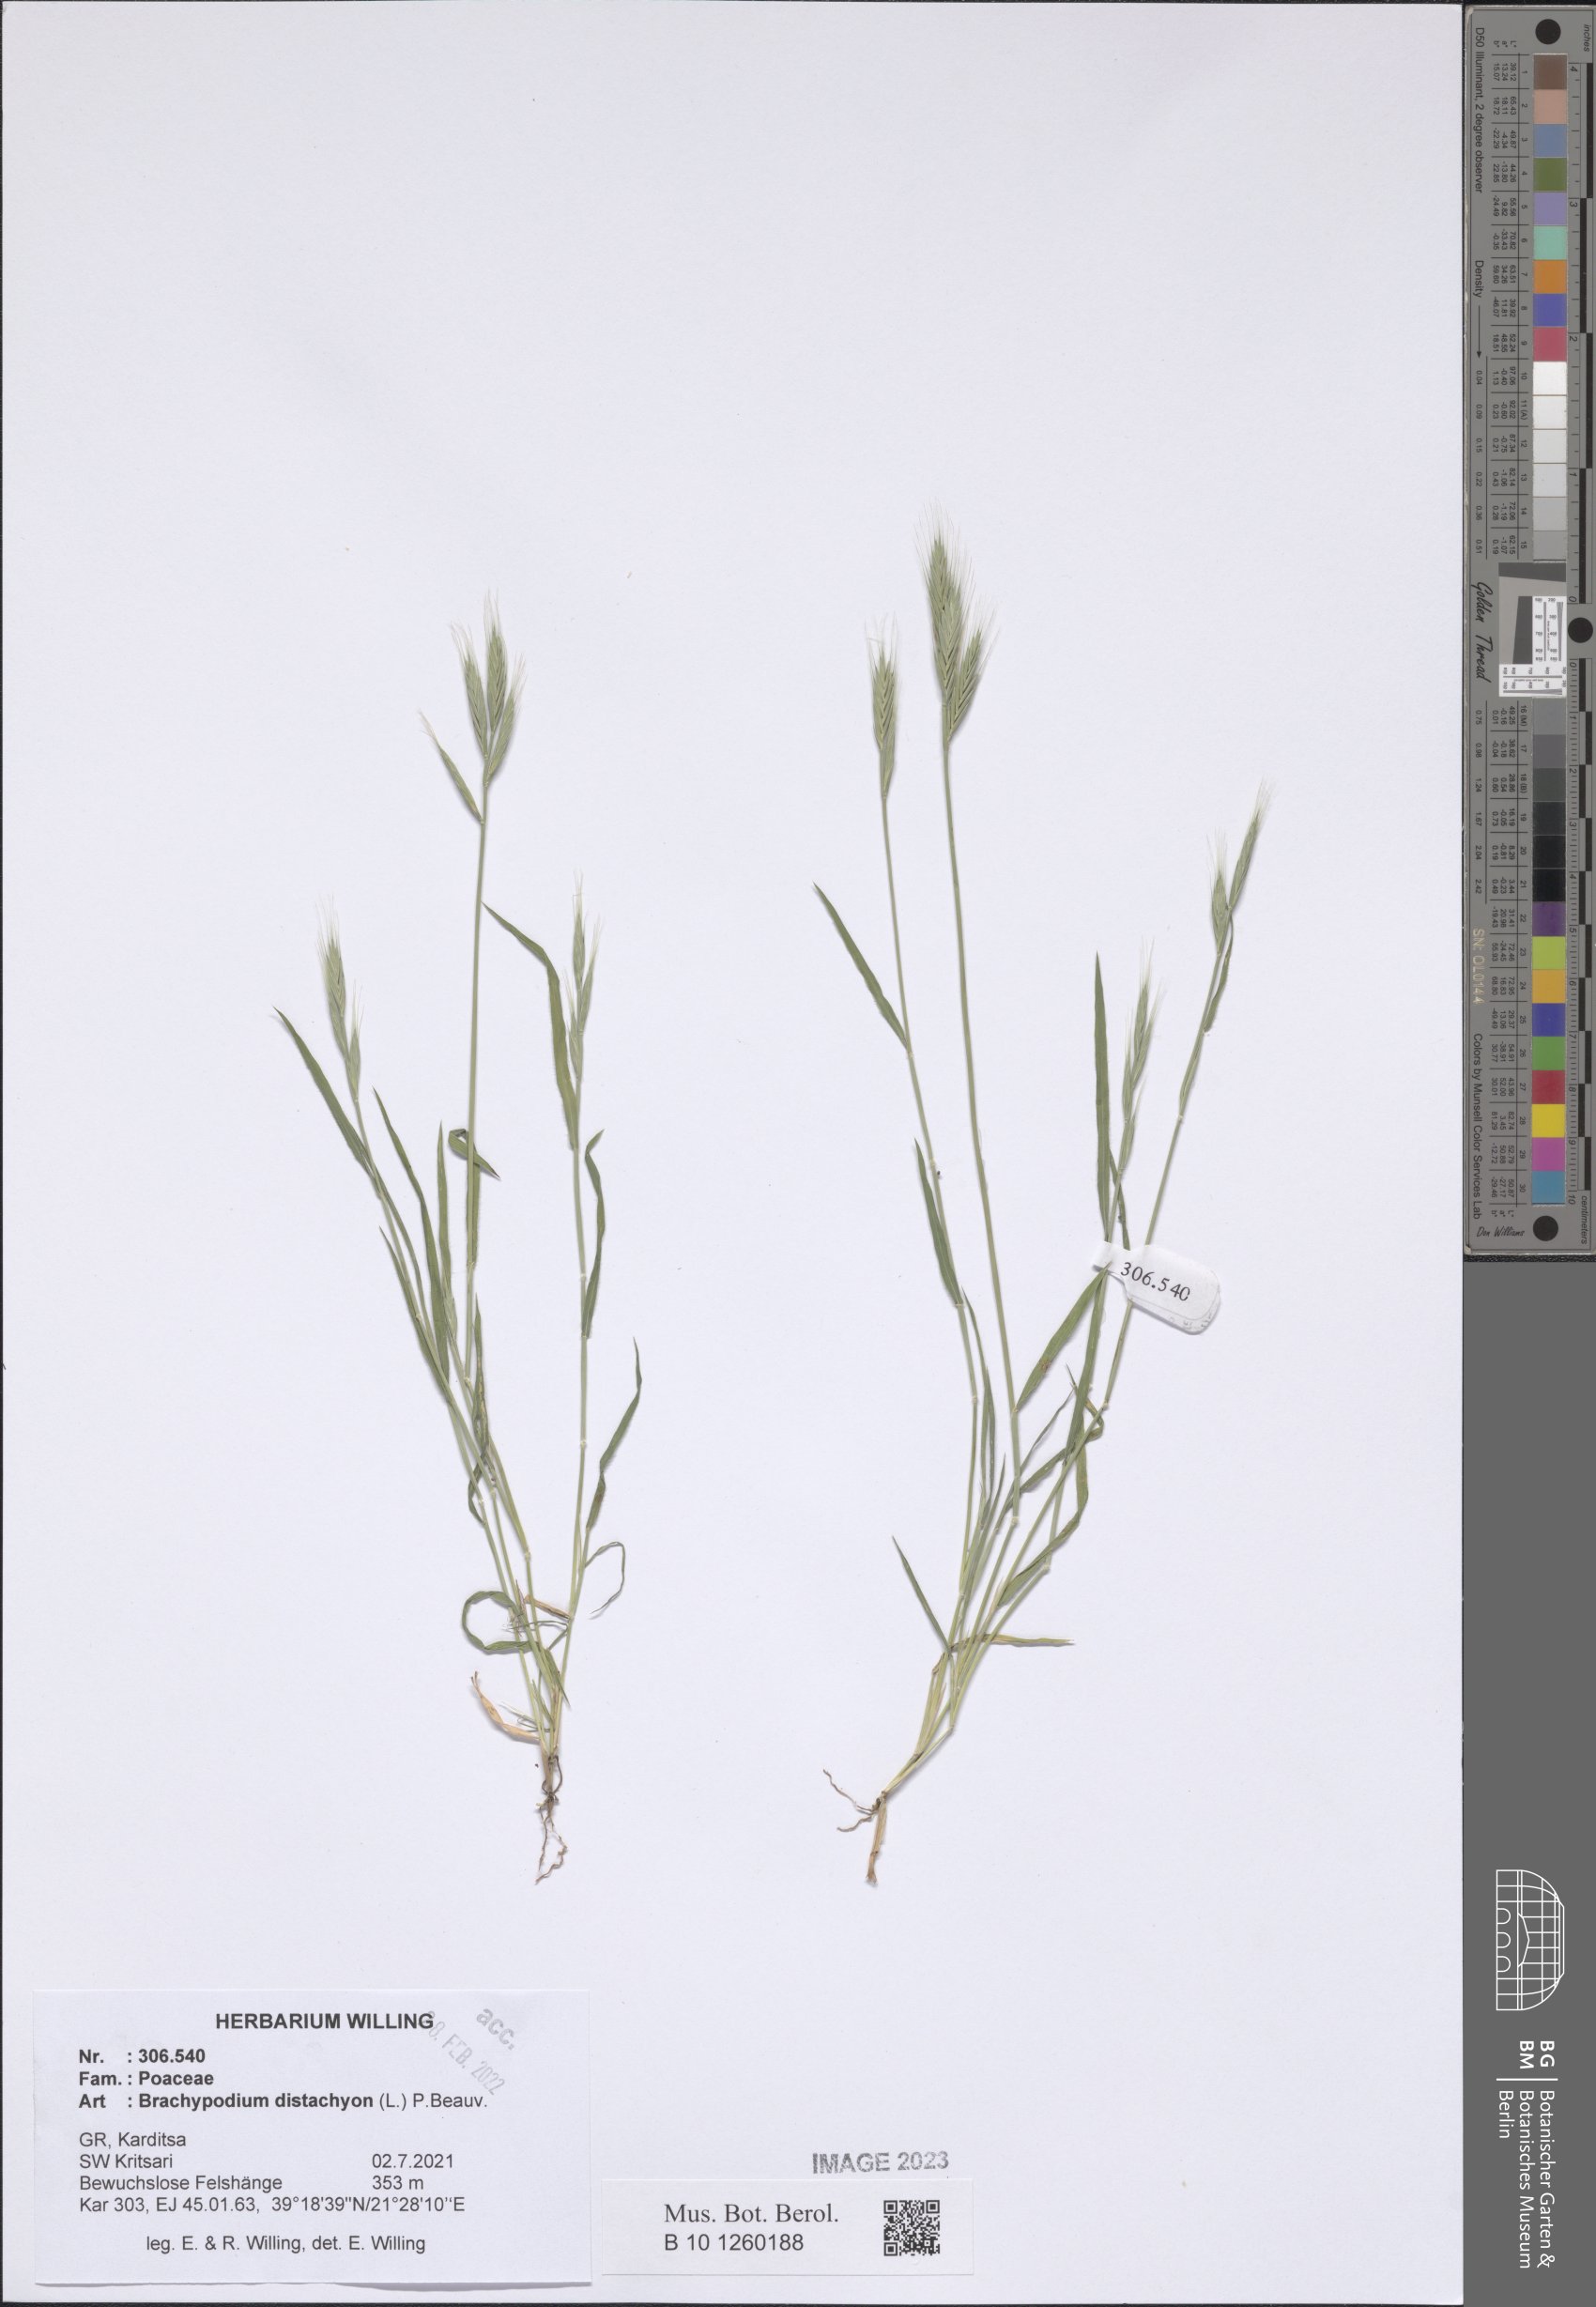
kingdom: Plantae
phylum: Tracheophyta
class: Liliopsida
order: Poales
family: Poaceae
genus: Brachypodium
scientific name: Brachypodium distachyon
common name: Stiff brome
